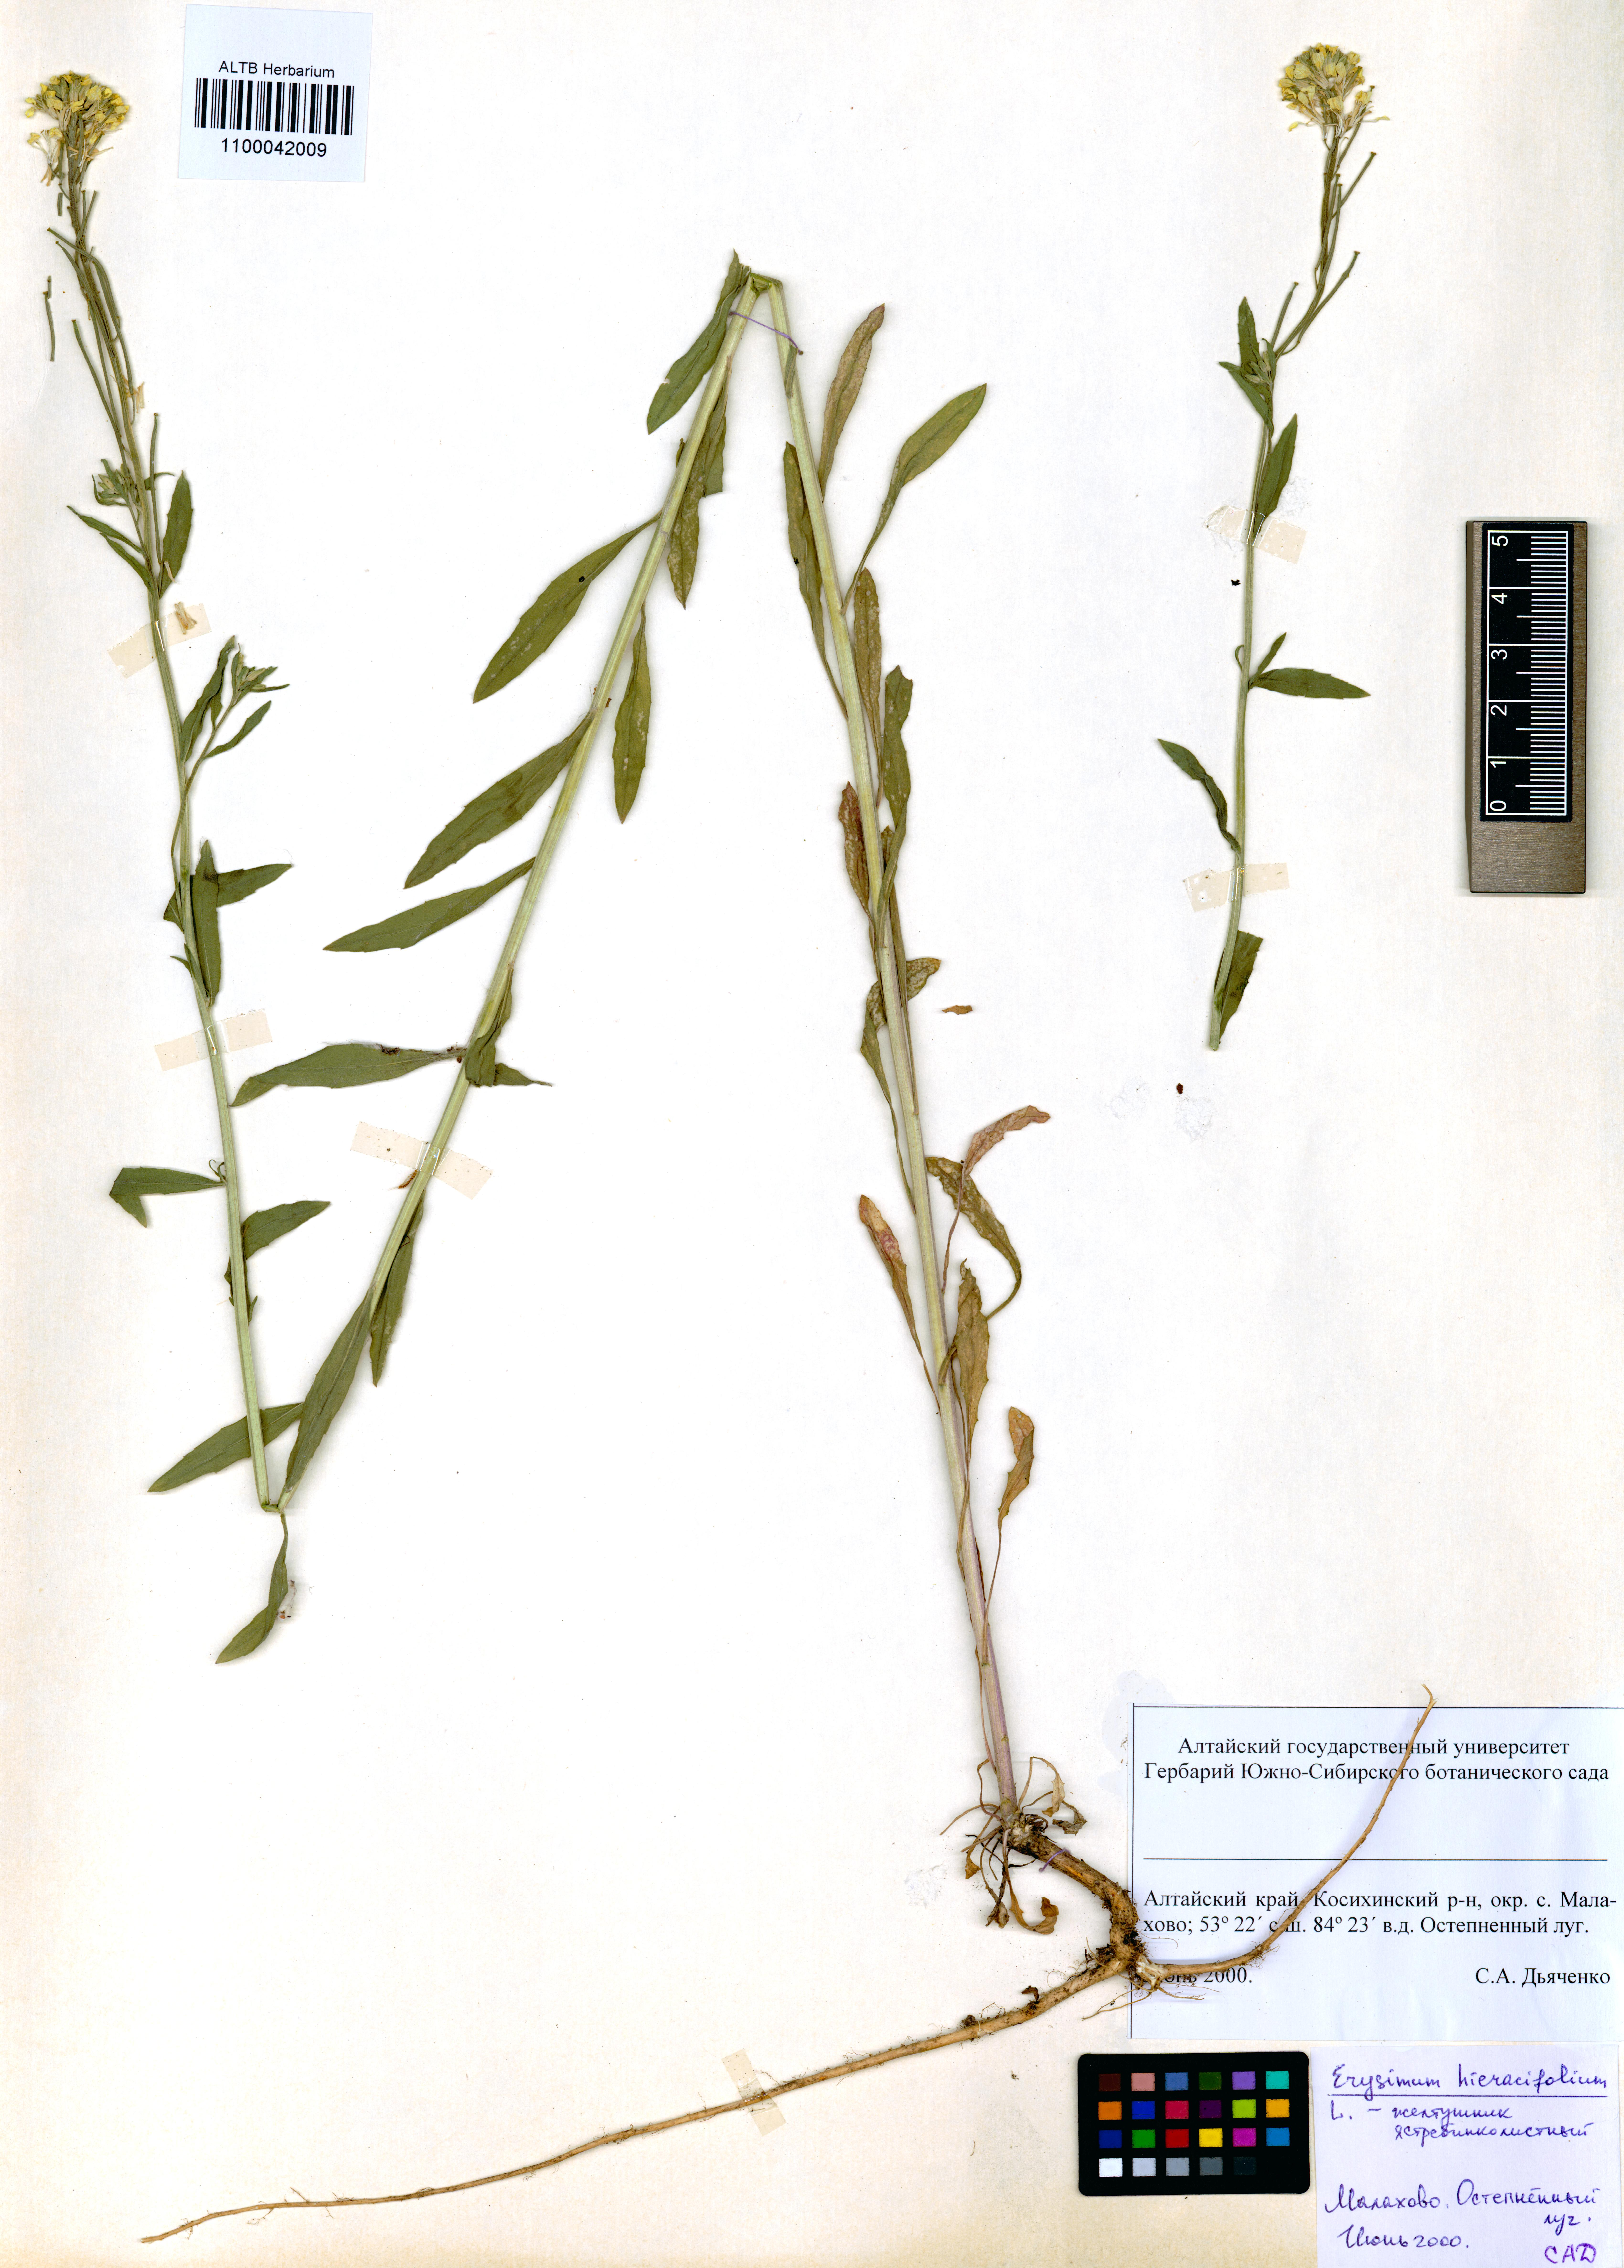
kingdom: Plantae
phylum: Tracheophyta
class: Magnoliopsida
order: Brassicales
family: Brassicaceae
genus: Erysimum
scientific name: Erysimum hieraciifolium
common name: European wallflower
